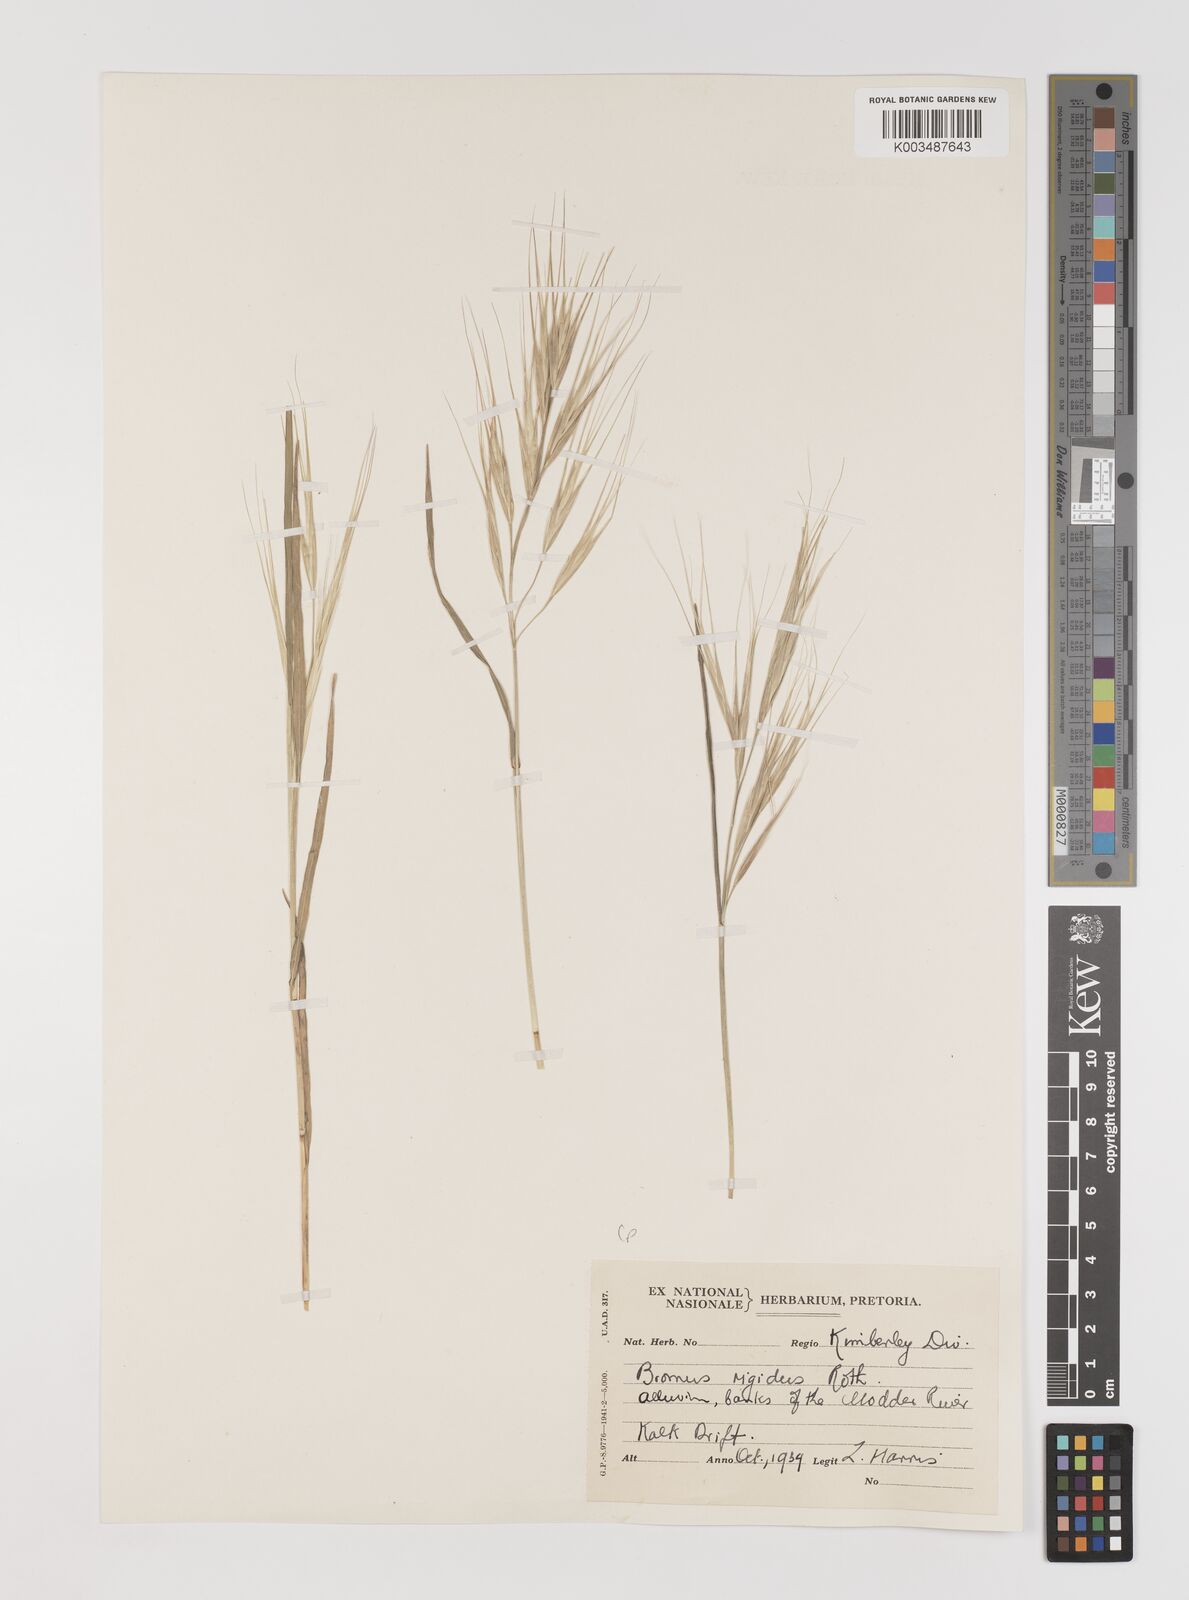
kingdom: Plantae
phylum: Tracheophyta
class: Liliopsida
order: Poales
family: Poaceae
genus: Bromus
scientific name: Bromus diandrus
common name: Ripgut brome
